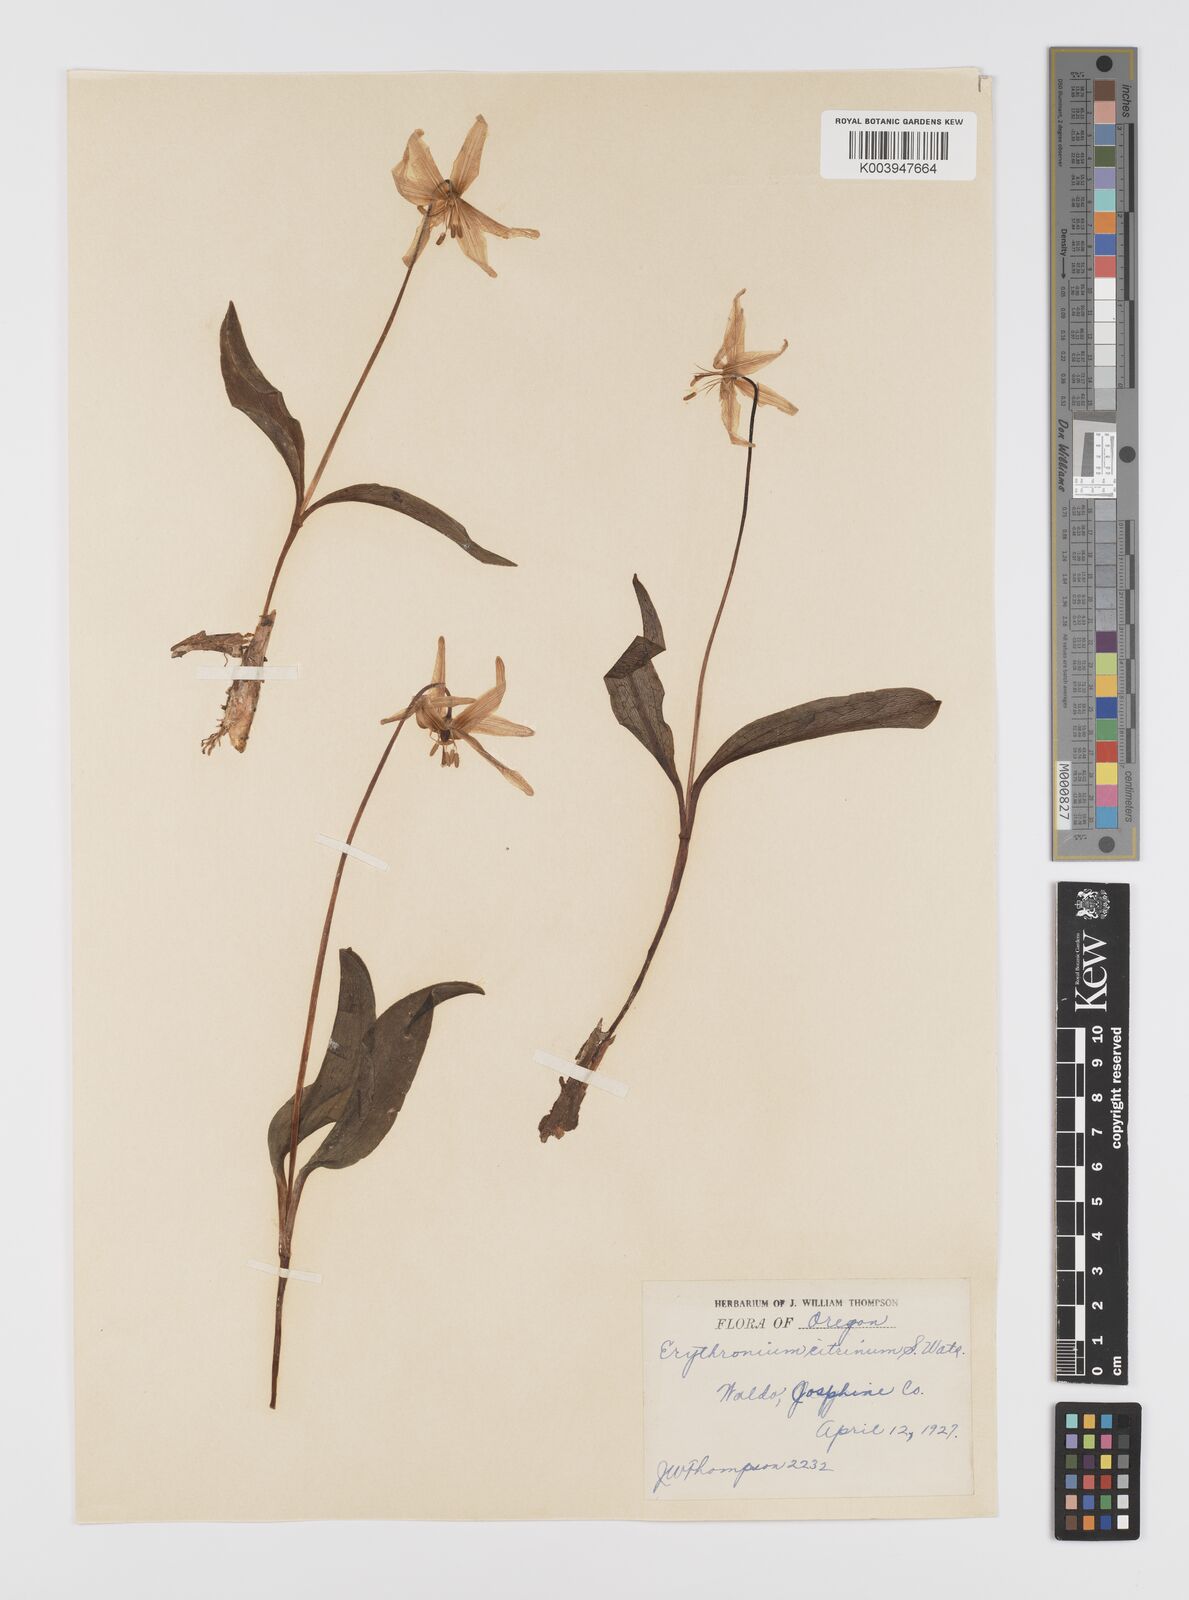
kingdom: Plantae
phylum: Tracheophyta
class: Liliopsida
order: Liliales
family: Liliaceae
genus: Erythronium
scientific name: Erythronium citrinum
